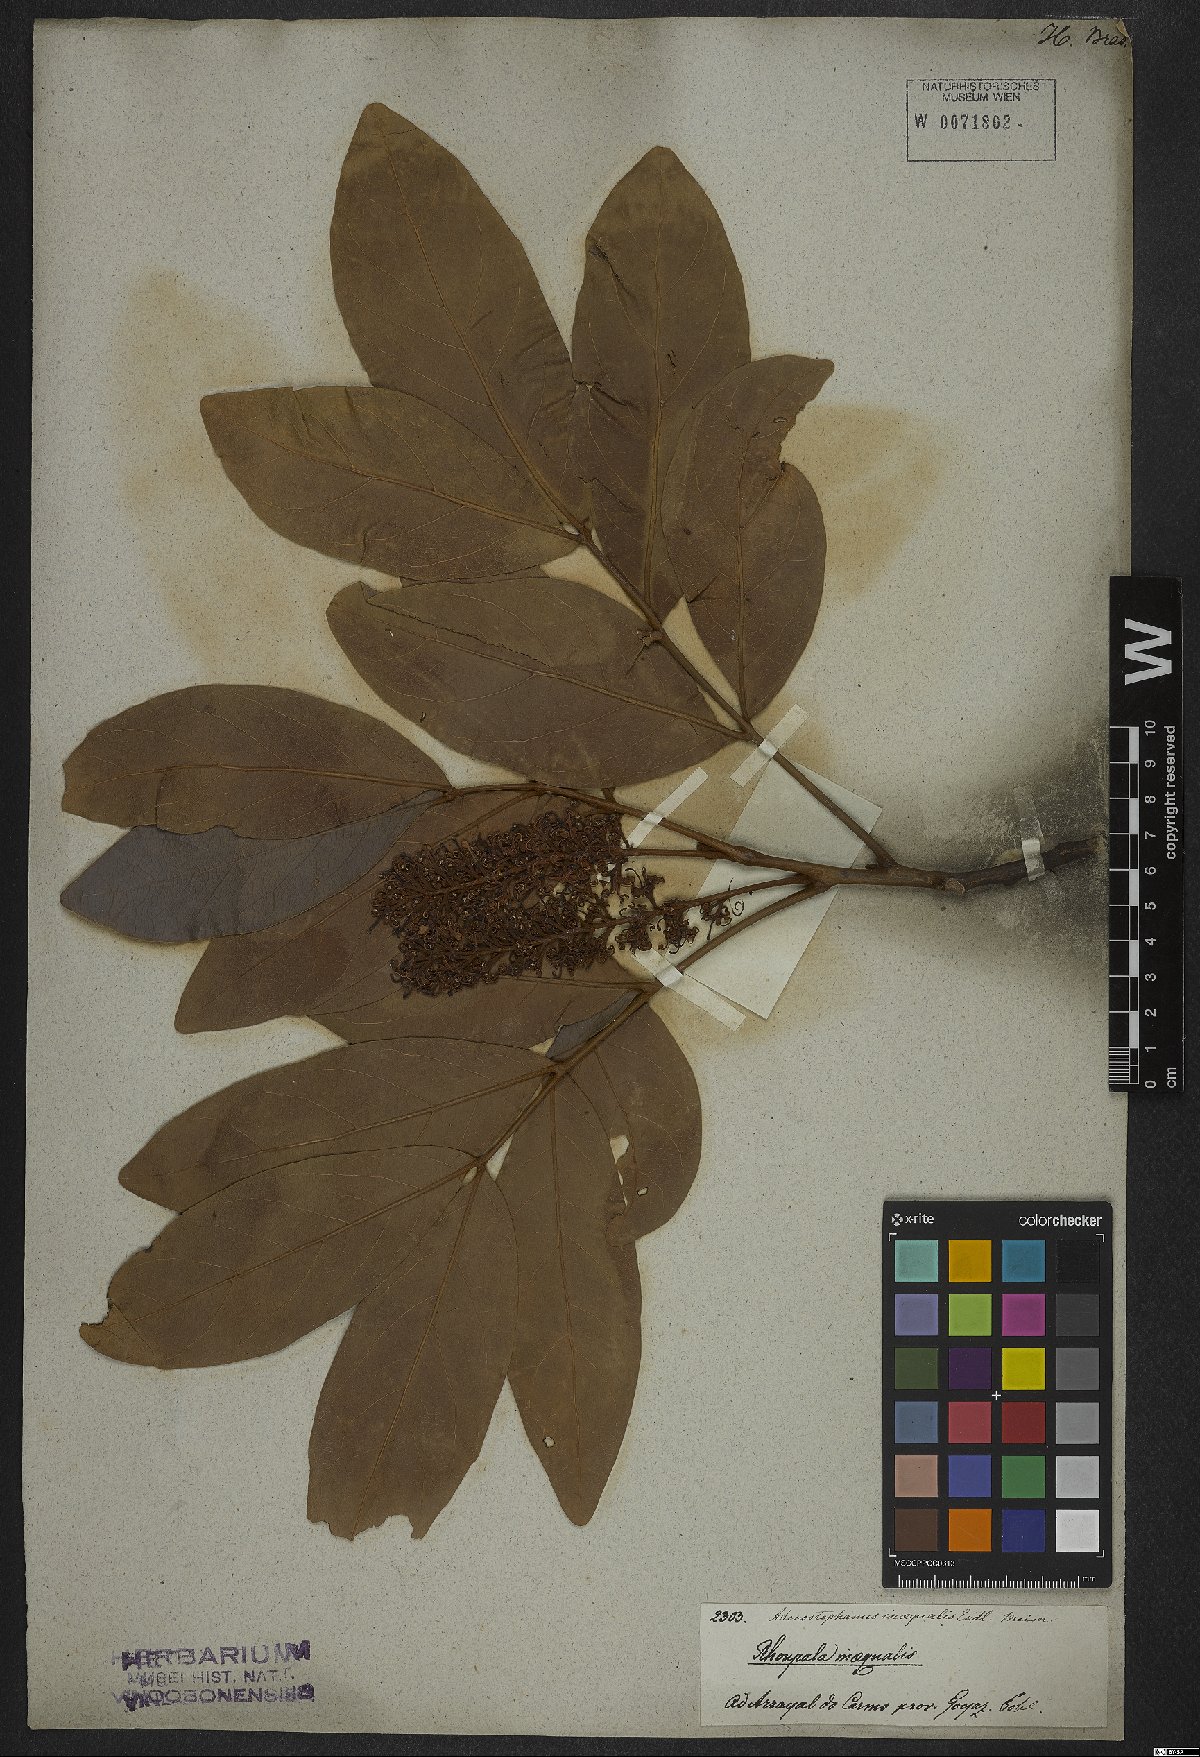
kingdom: Plantae
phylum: Tracheophyta
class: Magnoliopsida
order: Proteales
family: Proteaceae
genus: Euplassa
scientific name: Euplassa inaequalis
